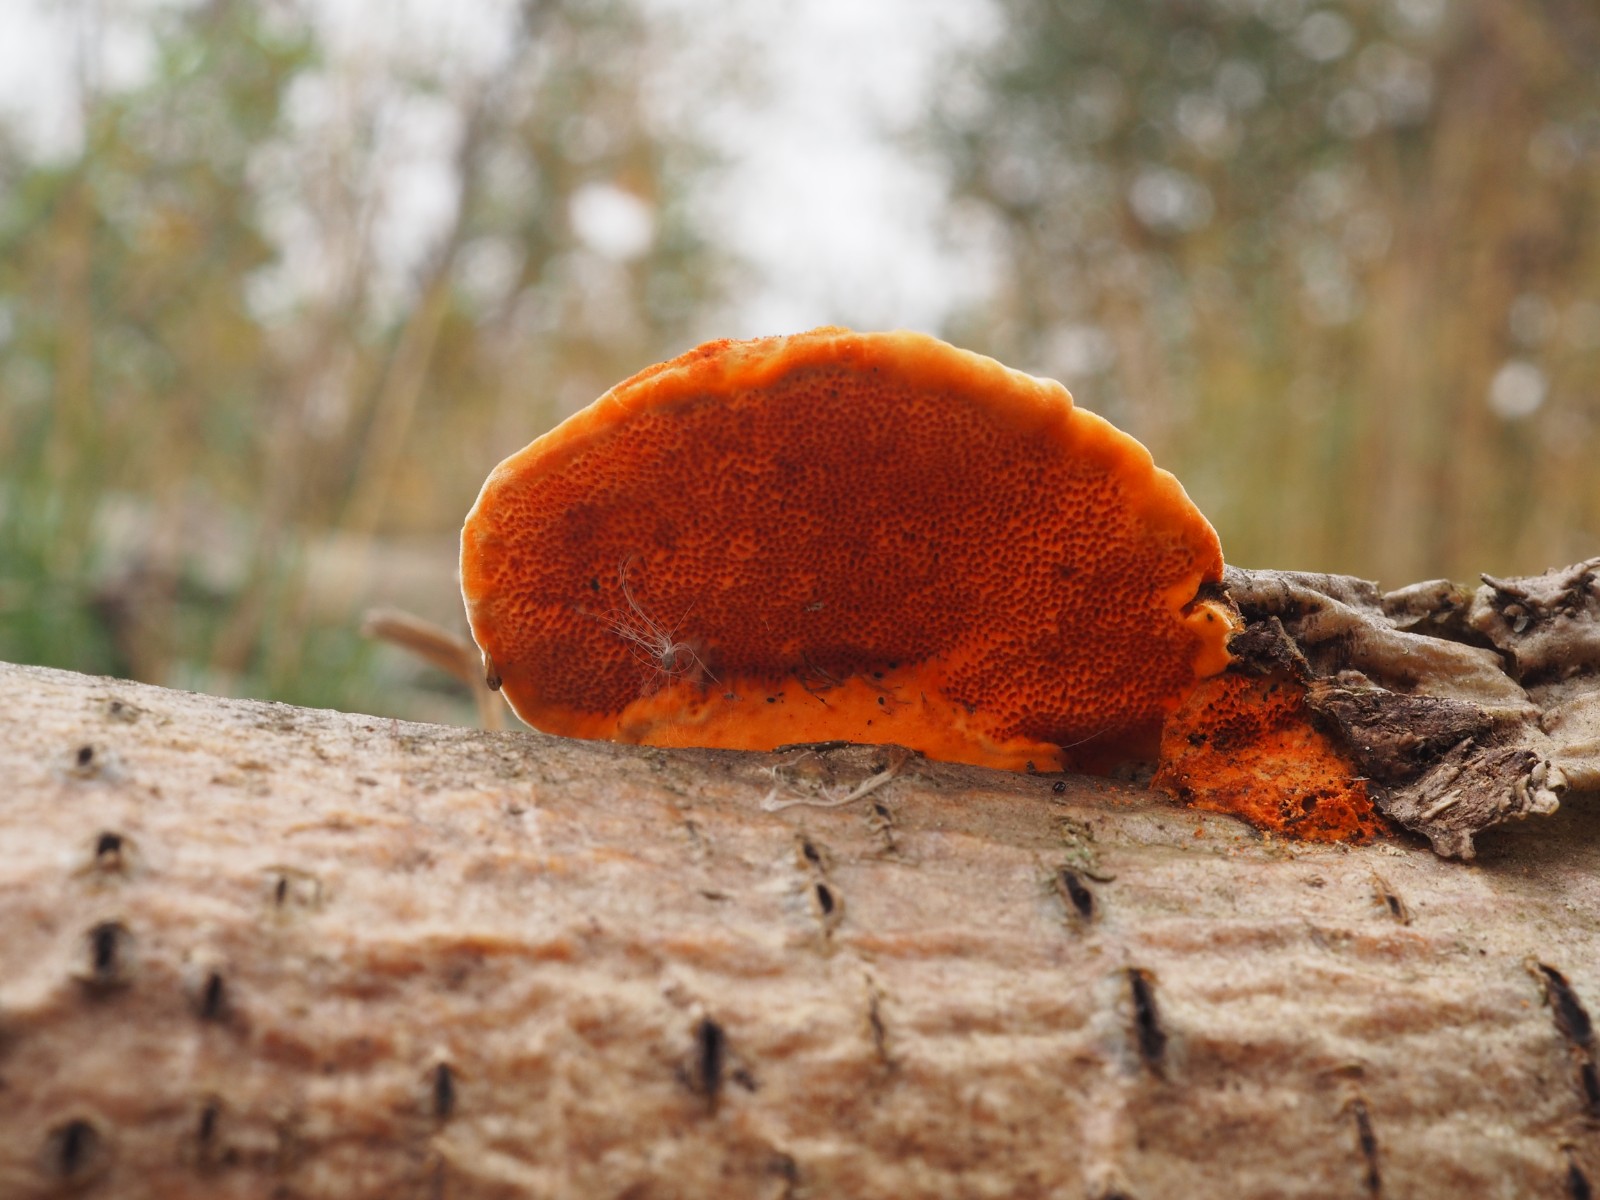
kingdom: Fungi
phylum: Basidiomycota
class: Agaricomycetes
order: Polyporales
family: Polyporaceae
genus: Trametes
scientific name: Trametes cinnabarina
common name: cinnoberporesvamp
